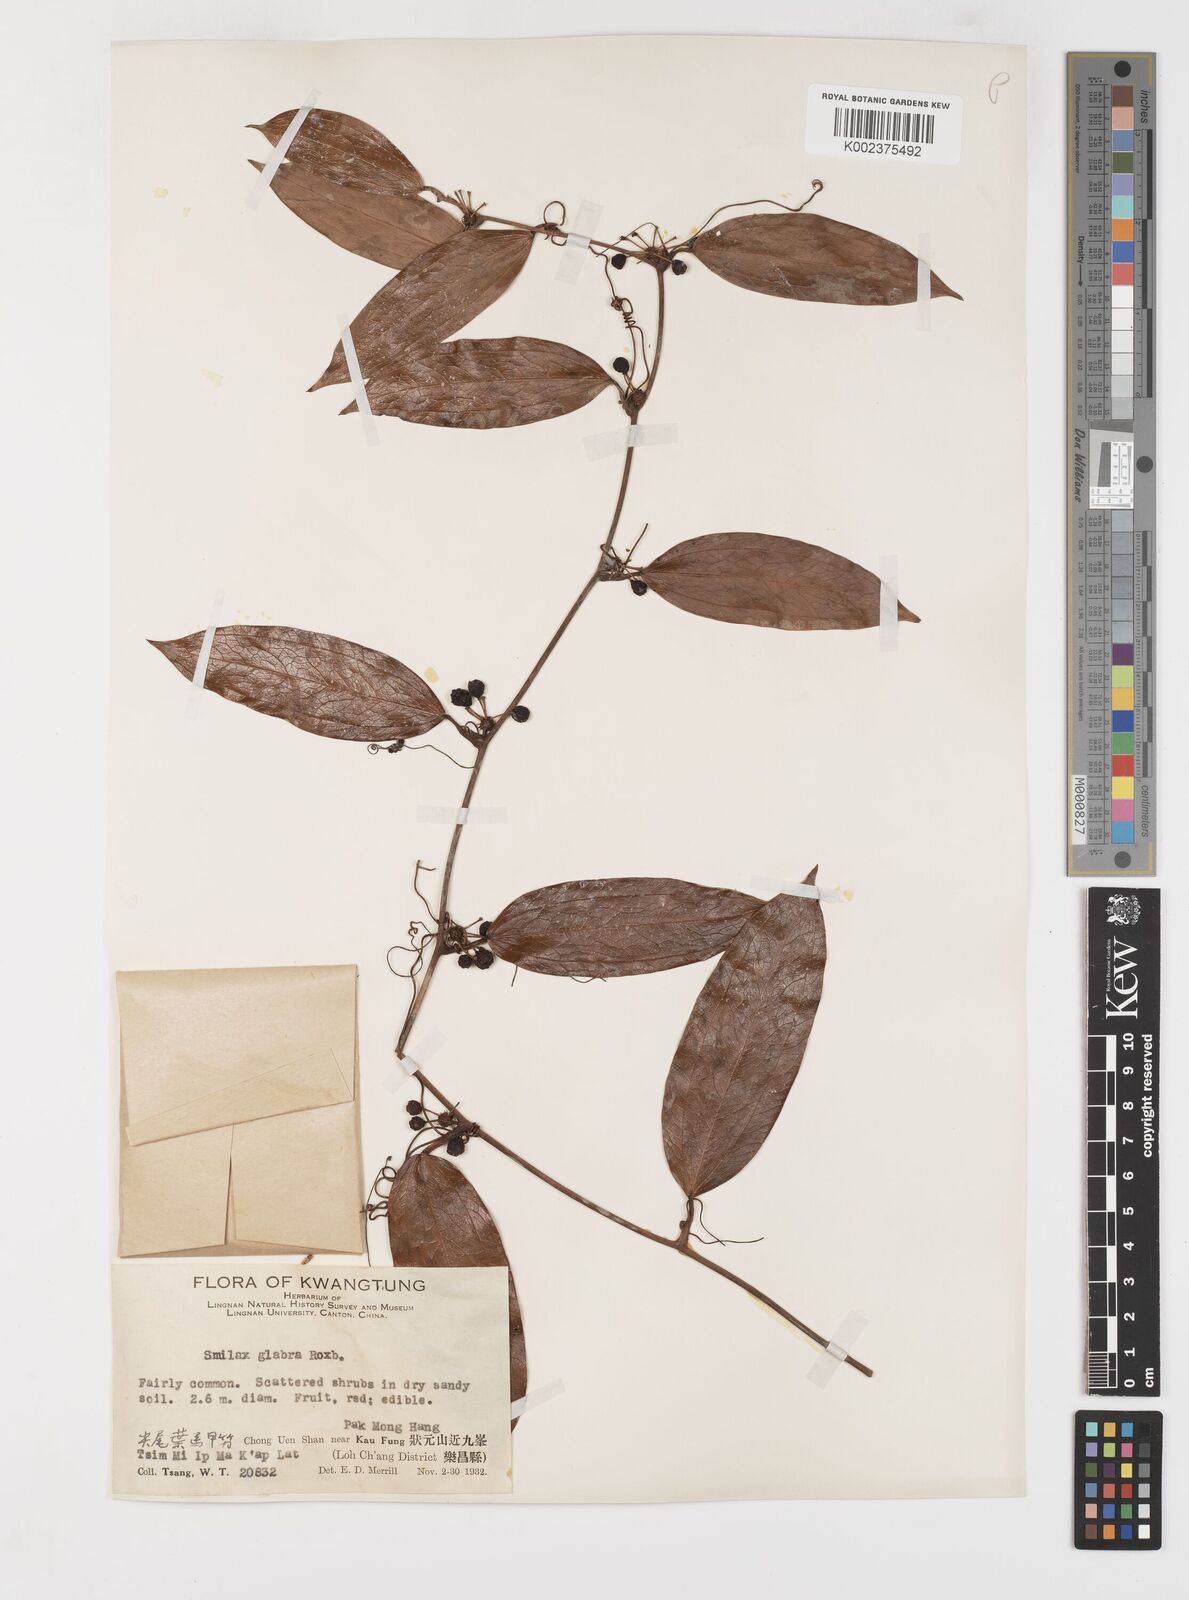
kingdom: Plantae
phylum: Tracheophyta
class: Liliopsida
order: Liliales
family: Smilacaceae
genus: Smilax
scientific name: Smilax glabra
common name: Chinese smilax
